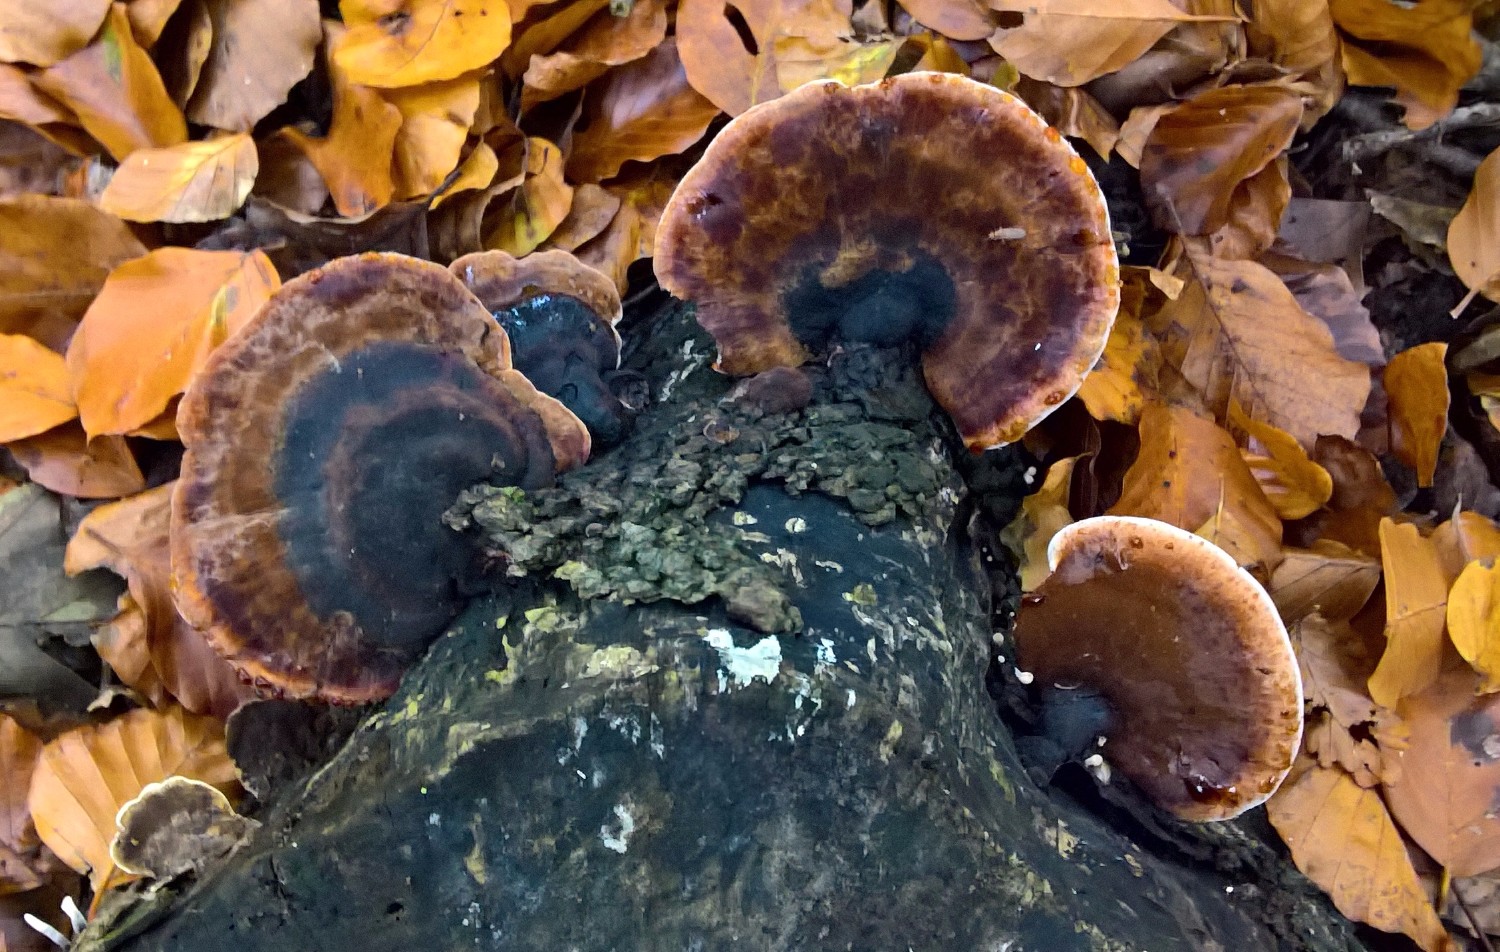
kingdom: Fungi
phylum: Basidiomycota
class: Agaricomycetes
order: Polyporales
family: Ischnodermataceae
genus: Ischnoderma
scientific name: Ischnoderma resinosum
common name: løv-tjæreporesvamp
